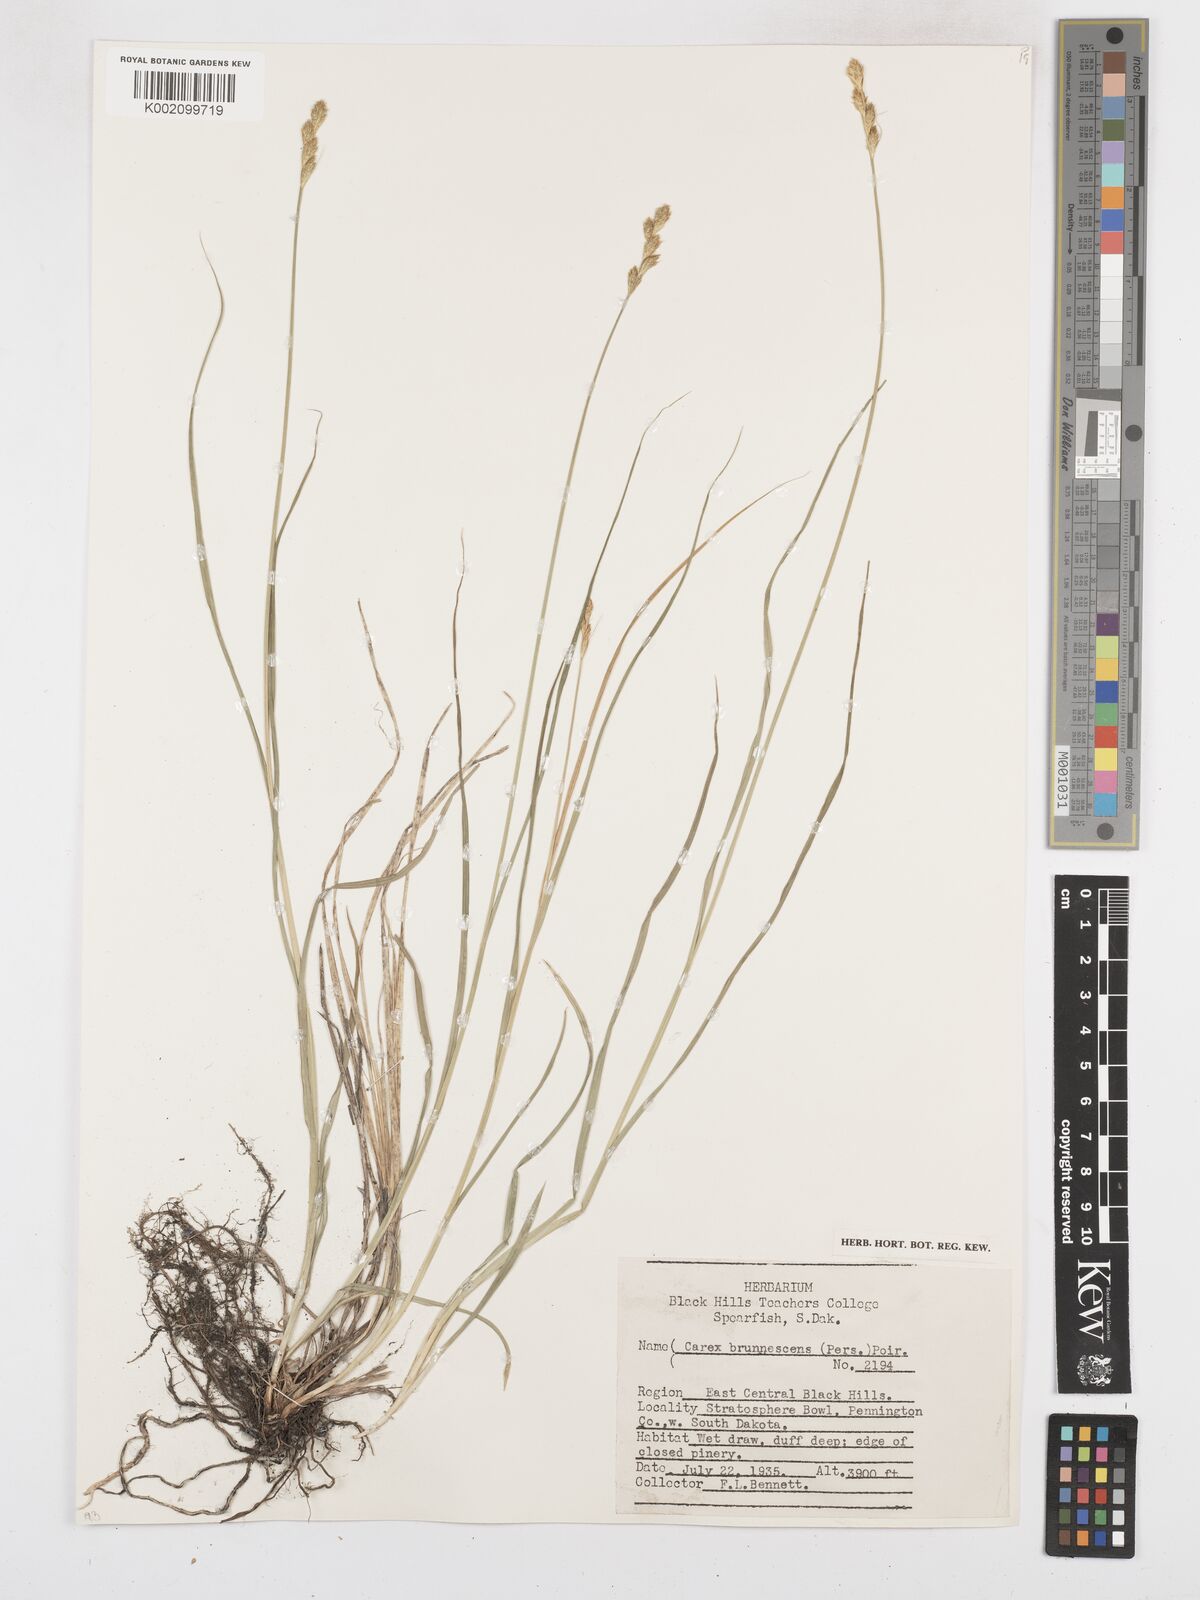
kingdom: Plantae
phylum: Tracheophyta
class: Liliopsida
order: Poales
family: Cyperaceae
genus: Carex
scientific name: Carex brunnescens
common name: Brown sedge
